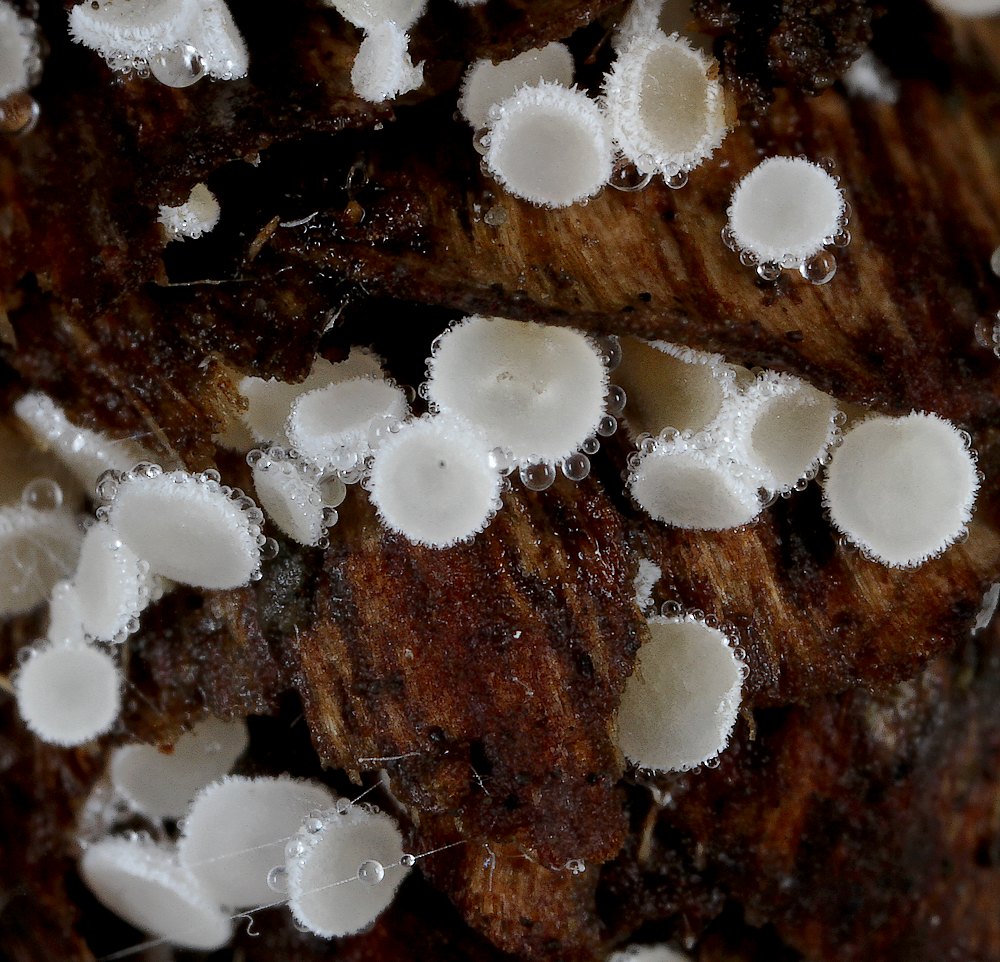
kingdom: Fungi
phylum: Ascomycota
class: Leotiomycetes
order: Helotiales
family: Lachnaceae
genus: Lachnum
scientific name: Lachnum virgineum
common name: jomfru-frynseskive
